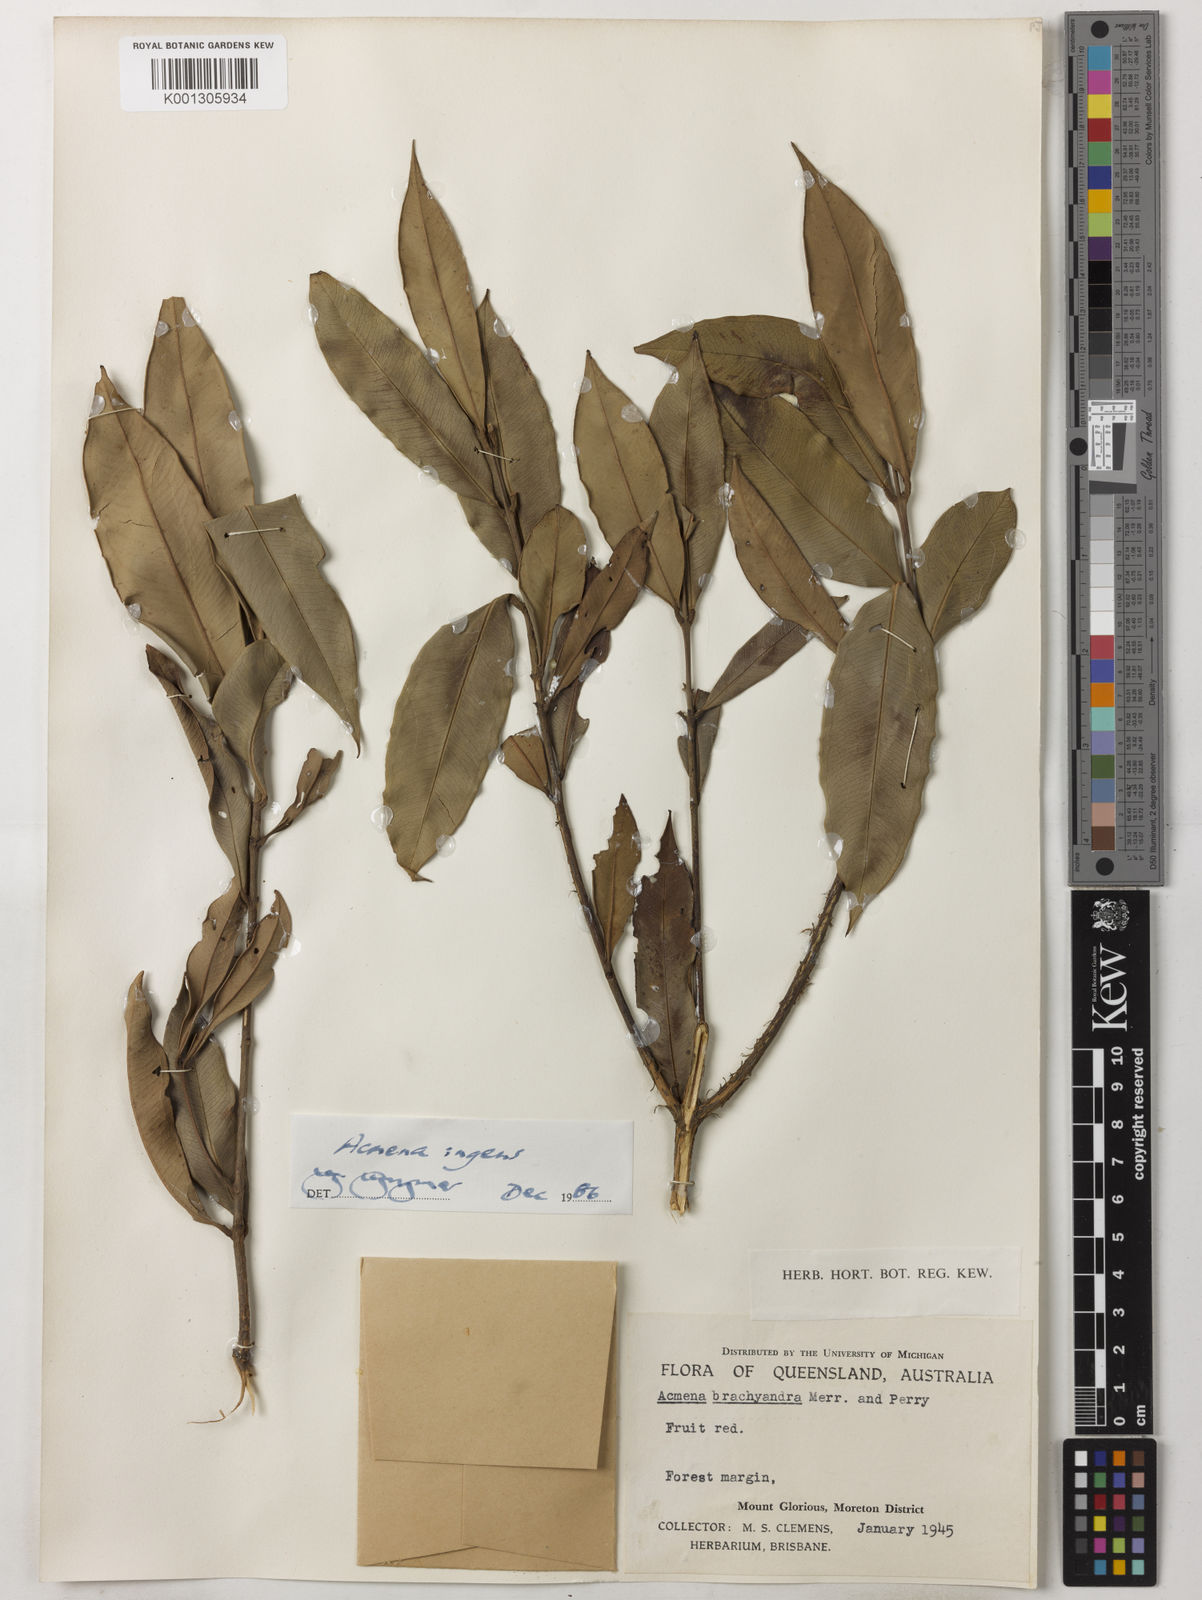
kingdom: Plantae
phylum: Tracheophyta
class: Magnoliopsida
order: Myrtales
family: Myrtaceae
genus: Syzygium
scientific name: Syzygium ingens
